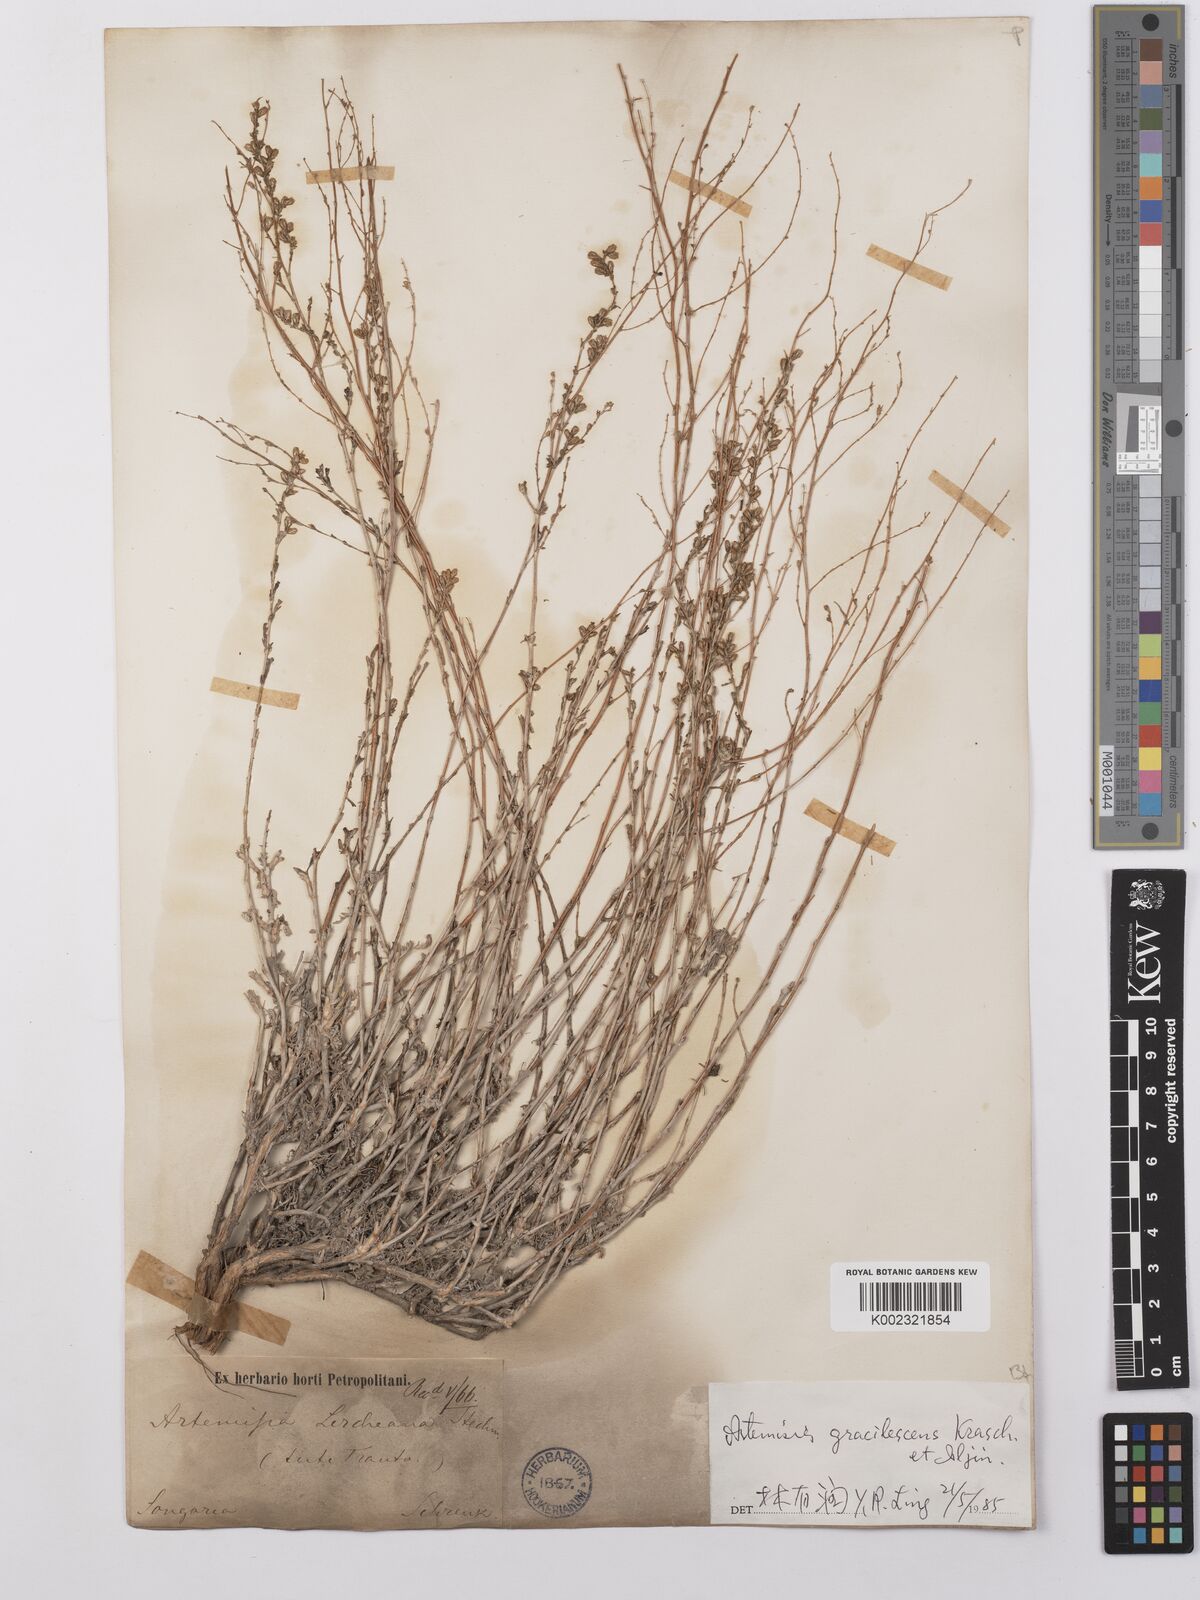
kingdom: Plantae
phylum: Tracheophyta
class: Magnoliopsida
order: Asterales
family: Asteraceae
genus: Artemisia
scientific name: Artemisia gracilescens
